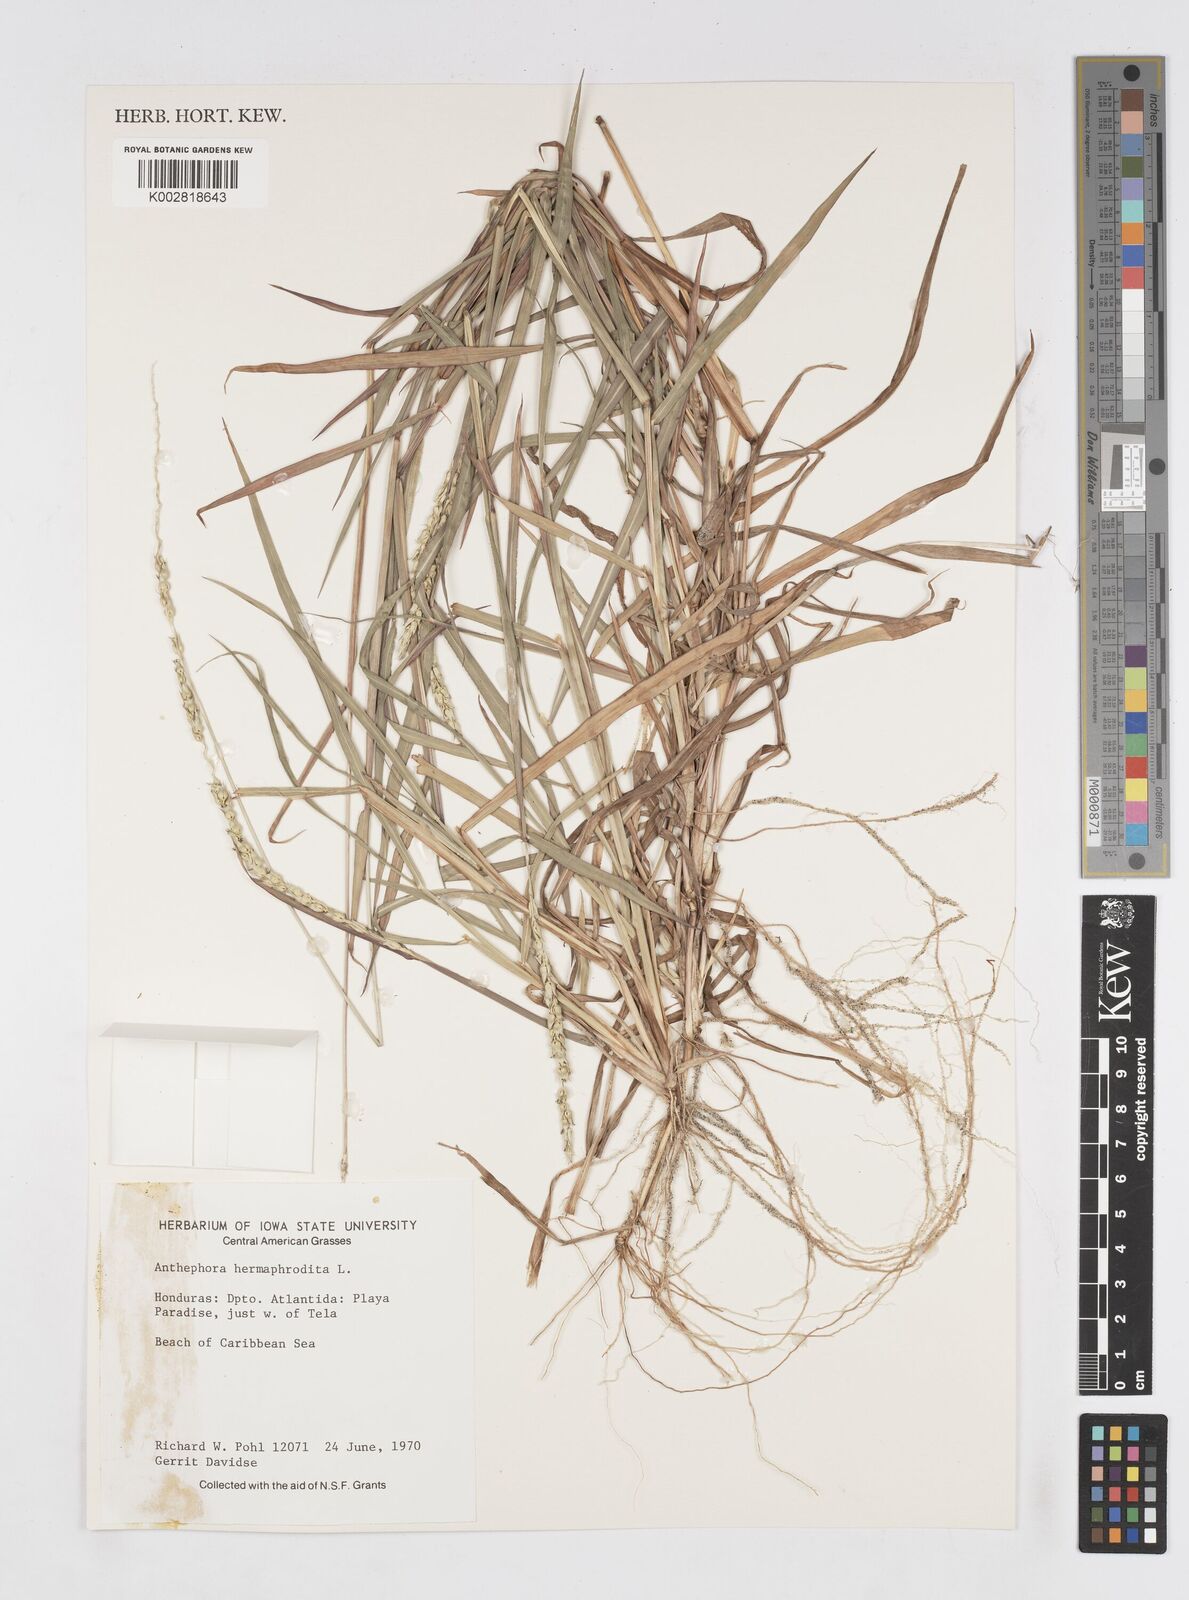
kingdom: Plantae
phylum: Tracheophyta
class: Liliopsida
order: Poales
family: Poaceae
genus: Anthephora
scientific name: Anthephora hermaphrodita
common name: Oldfield grass
